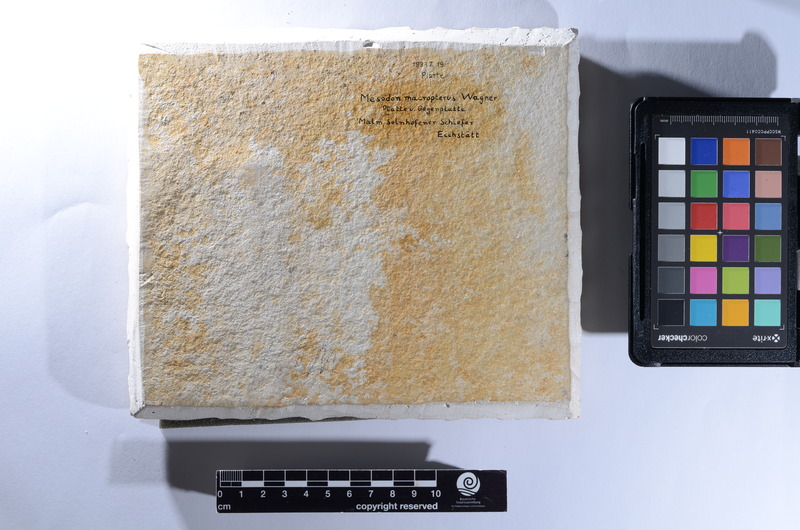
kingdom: Animalia
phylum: Chordata
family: Pycnodontidae
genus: Gyronchus
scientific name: Gyronchus
